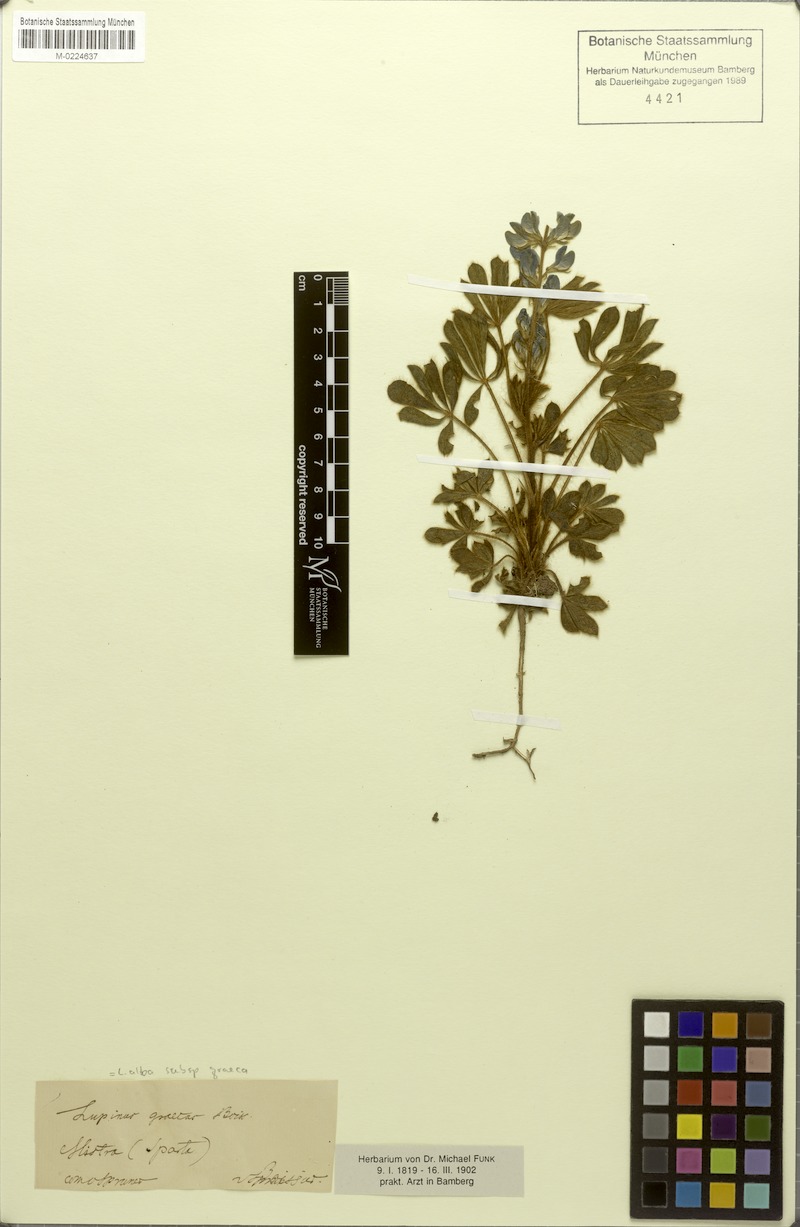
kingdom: Plantae
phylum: Tracheophyta
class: Magnoliopsida
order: Fabales
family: Fabaceae
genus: Lupinus
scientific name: Lupinus albus
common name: White lupin
